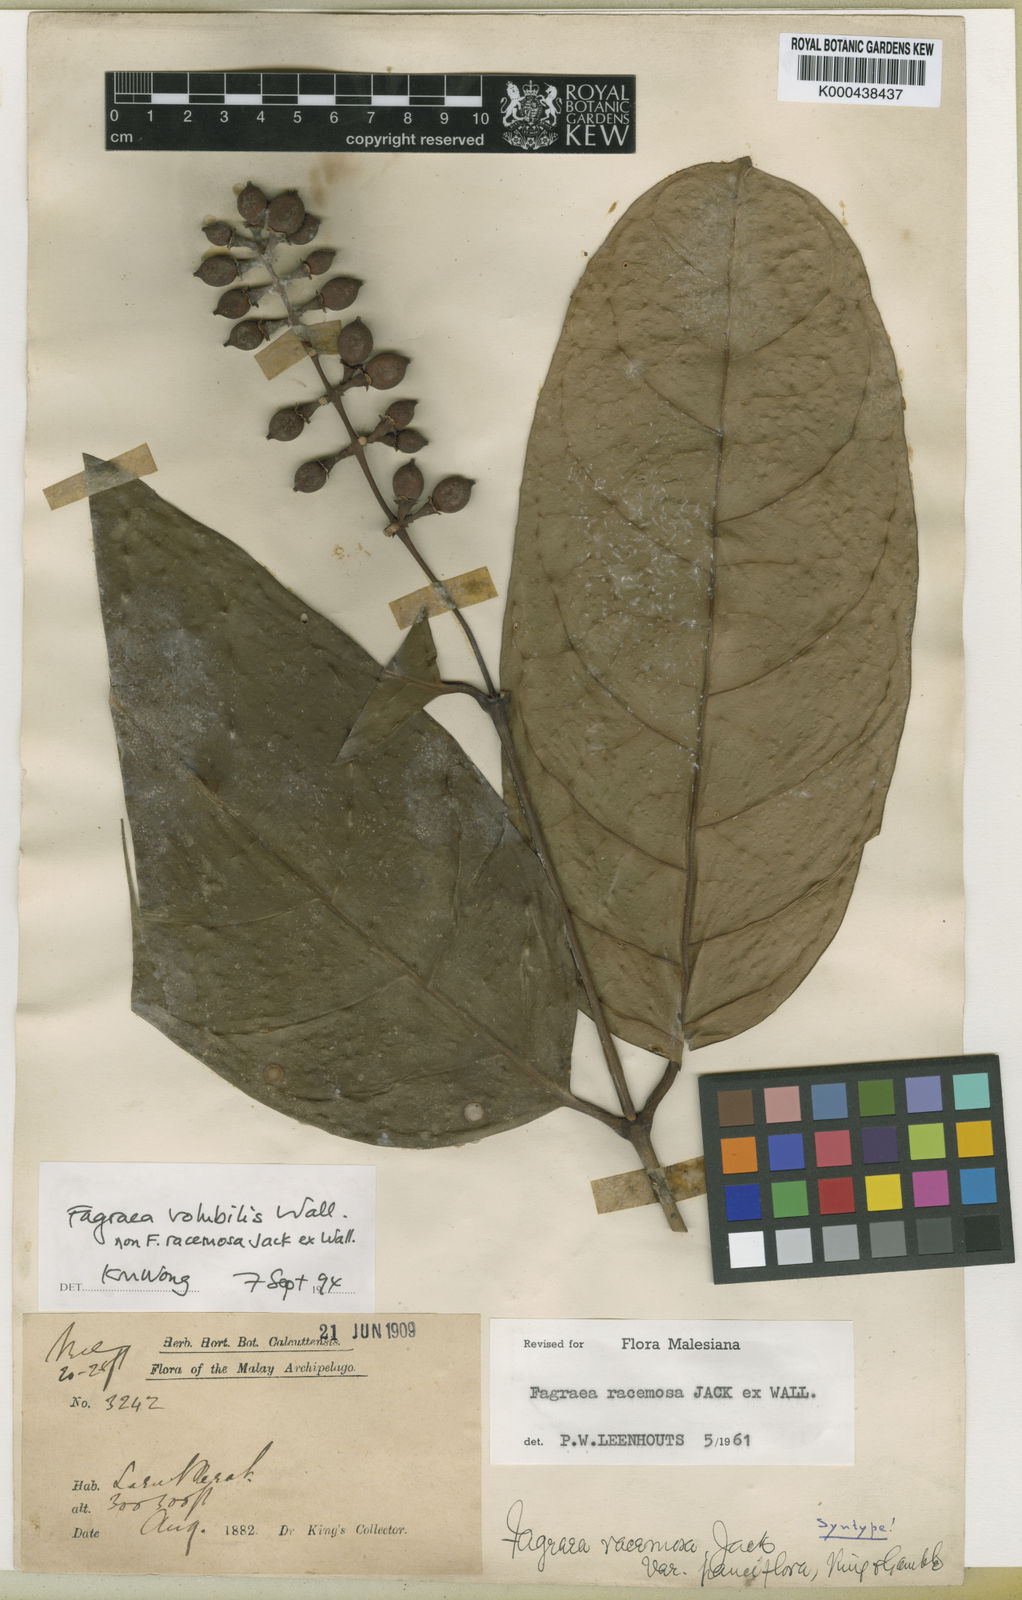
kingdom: Plantae
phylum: Tracheophyta
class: Magnoliopsida
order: Gentianales
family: Gentianaceae
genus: Utania
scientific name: Utania volubilis
